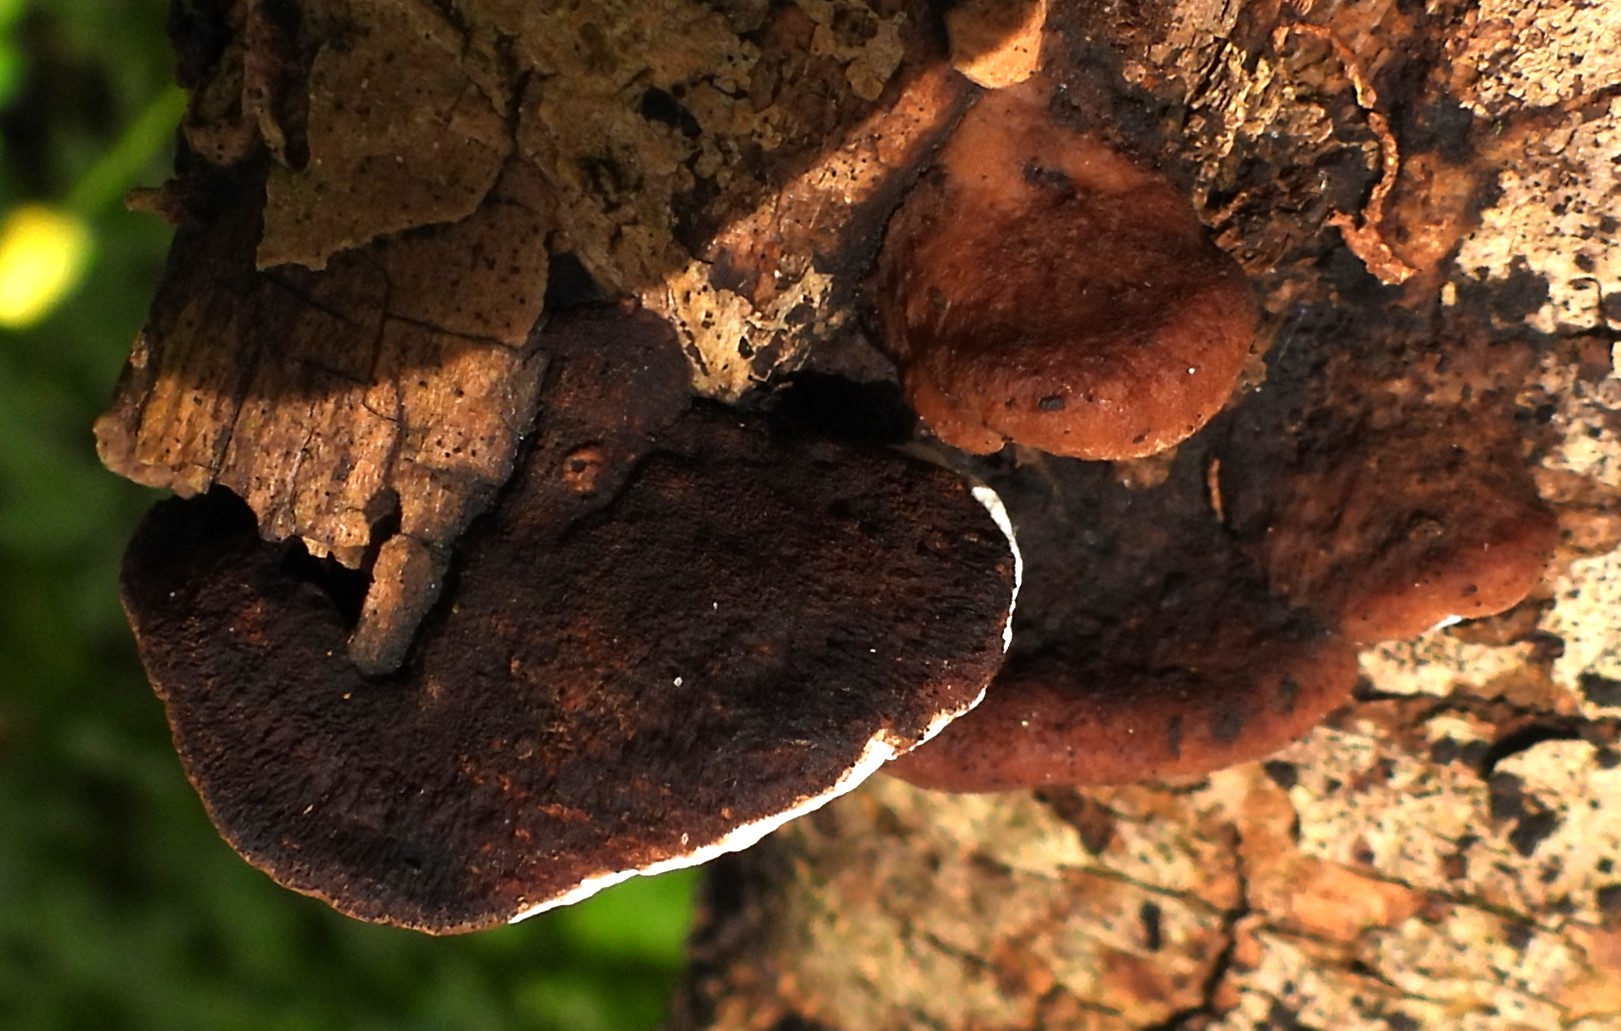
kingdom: Fungi
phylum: Basidiomycota
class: Agaricomycetes
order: Polyporales
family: Incrustoporiaceae
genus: Skeletocutis
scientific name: Skeletocutis nemoralis
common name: stor krystalporesvamp
